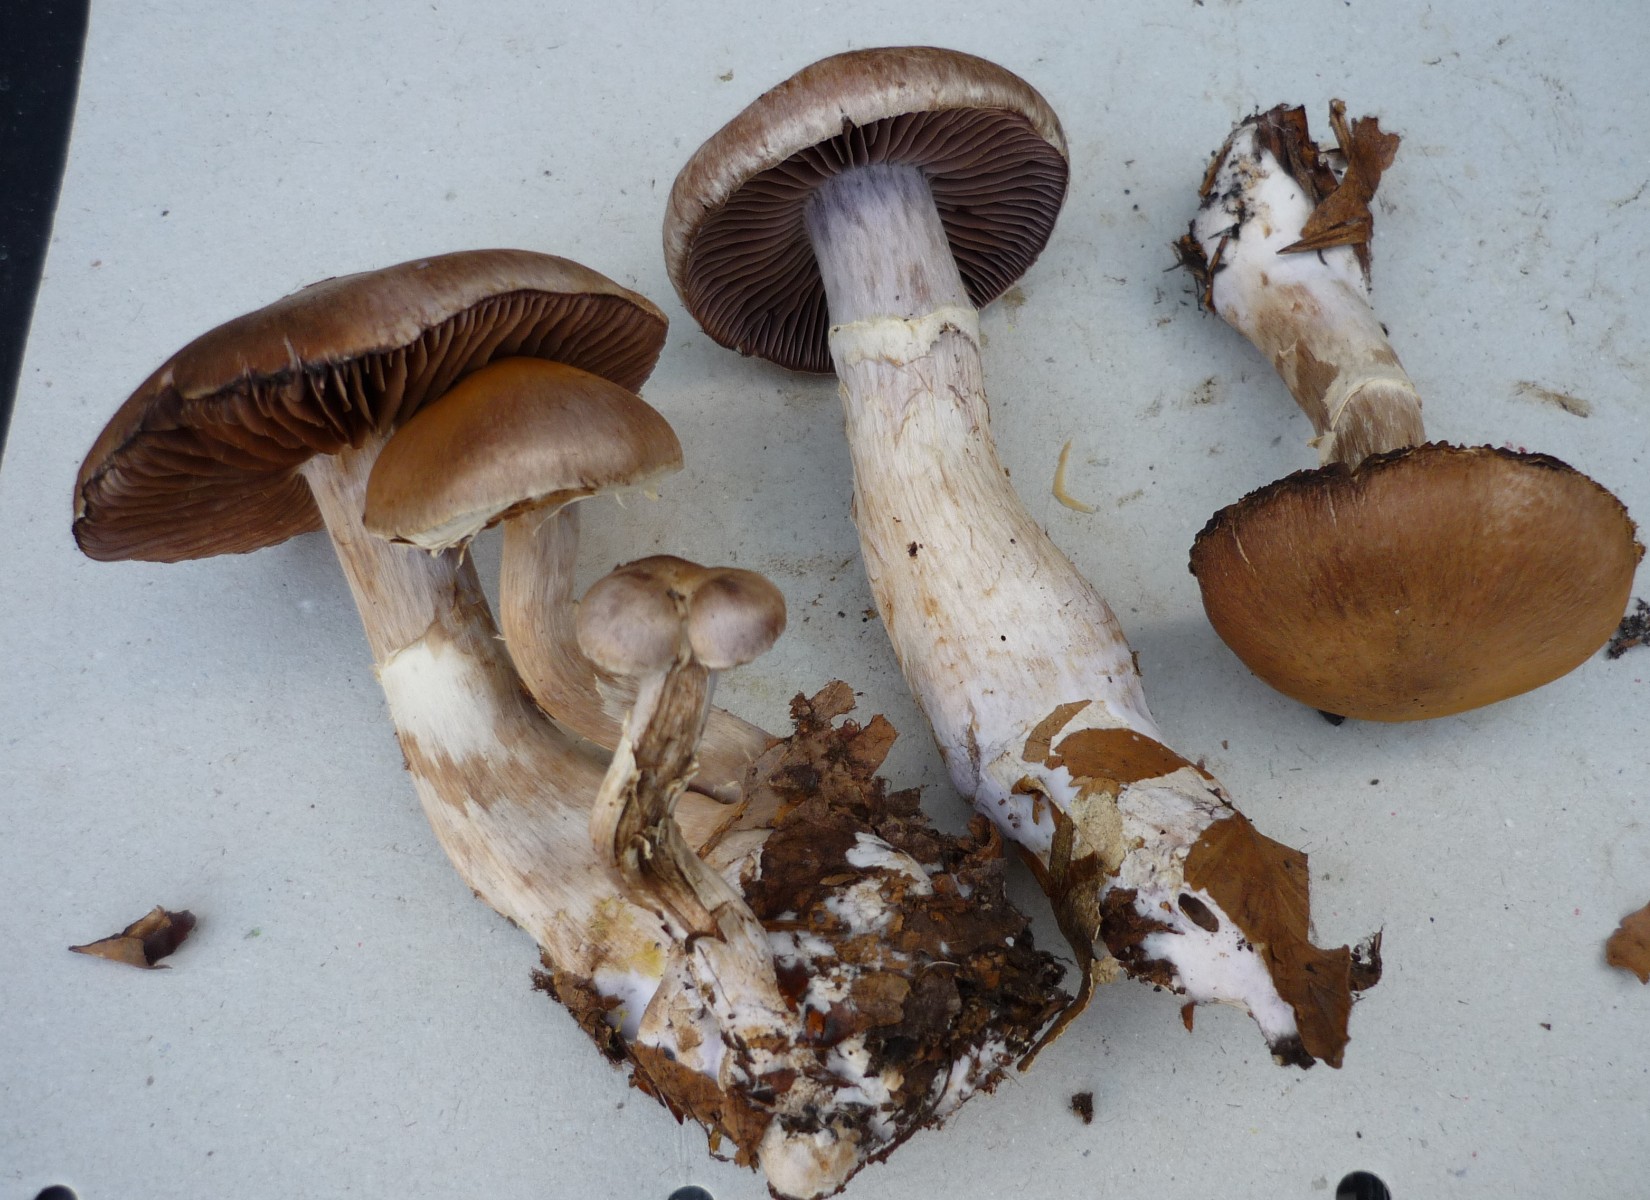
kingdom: Fungi
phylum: Basidiomycota
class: Agaricomycetes
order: Agaricales
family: Cortinariaceae
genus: Cortinarius
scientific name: Cortinarius torvus
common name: champignonagtig slørhat
